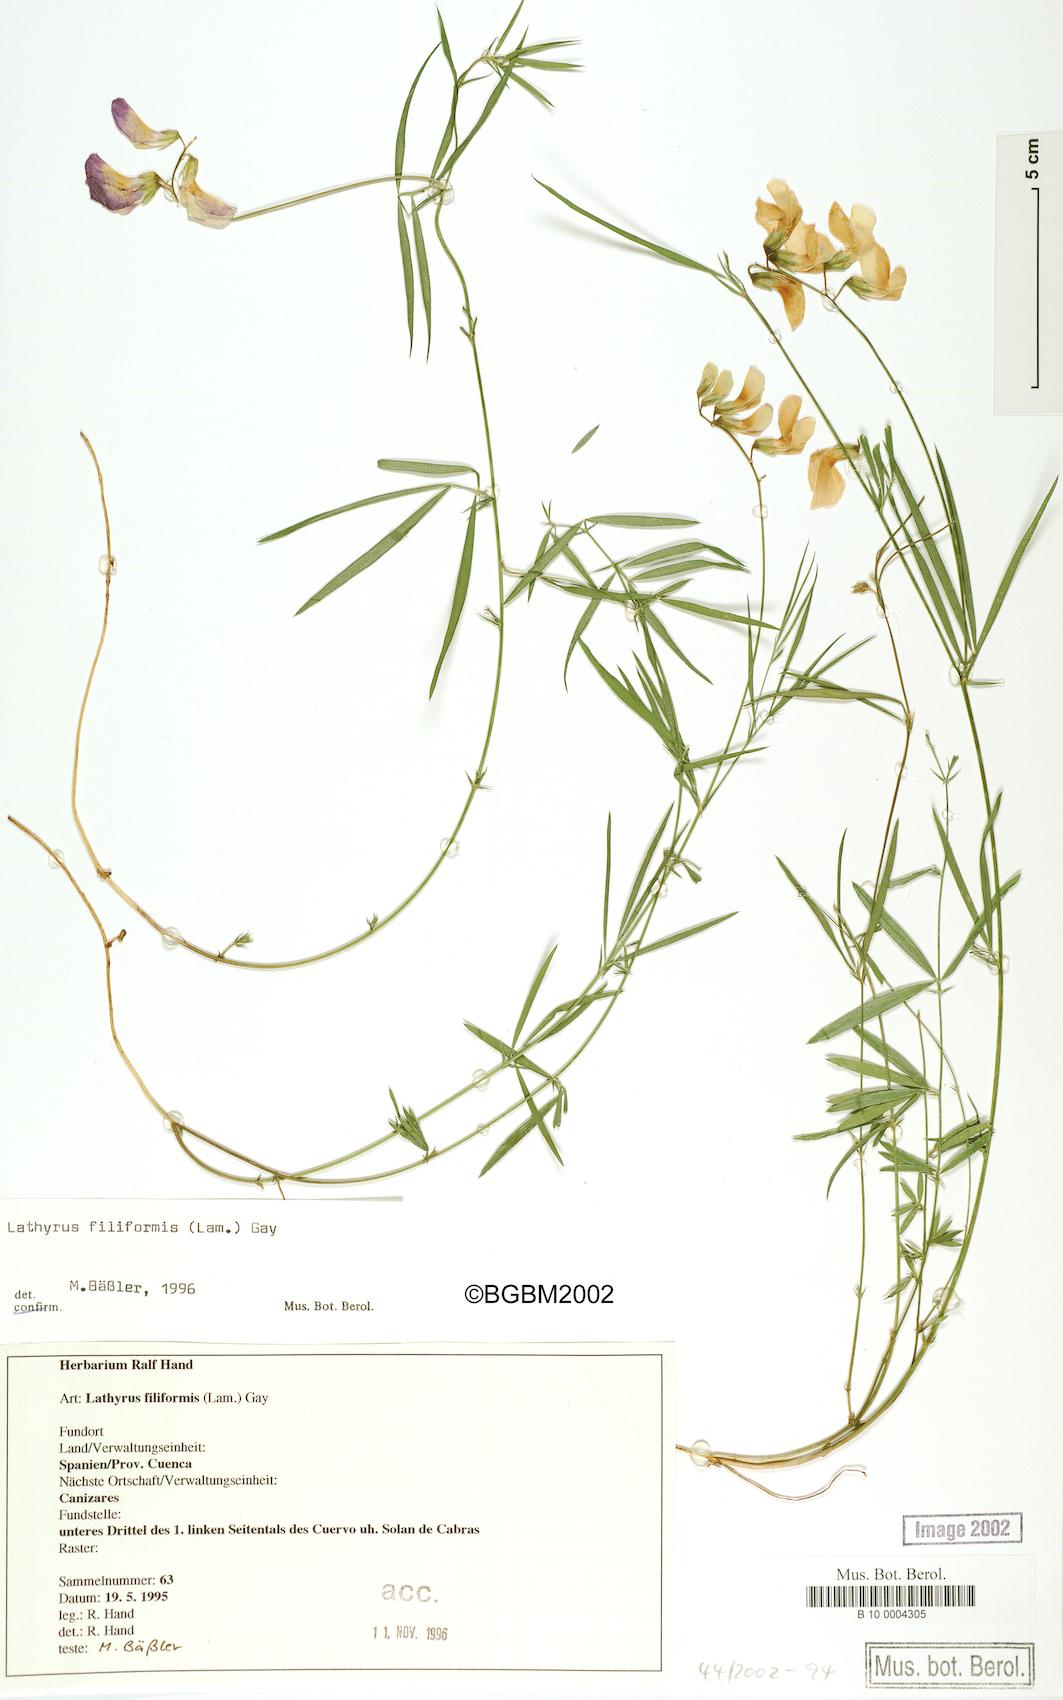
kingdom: Plantae
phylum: Tracheophyta
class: Magnoliopsida
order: Fabales
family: Fabaceae
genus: Lathyrus
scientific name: Lathyrus filiformis
